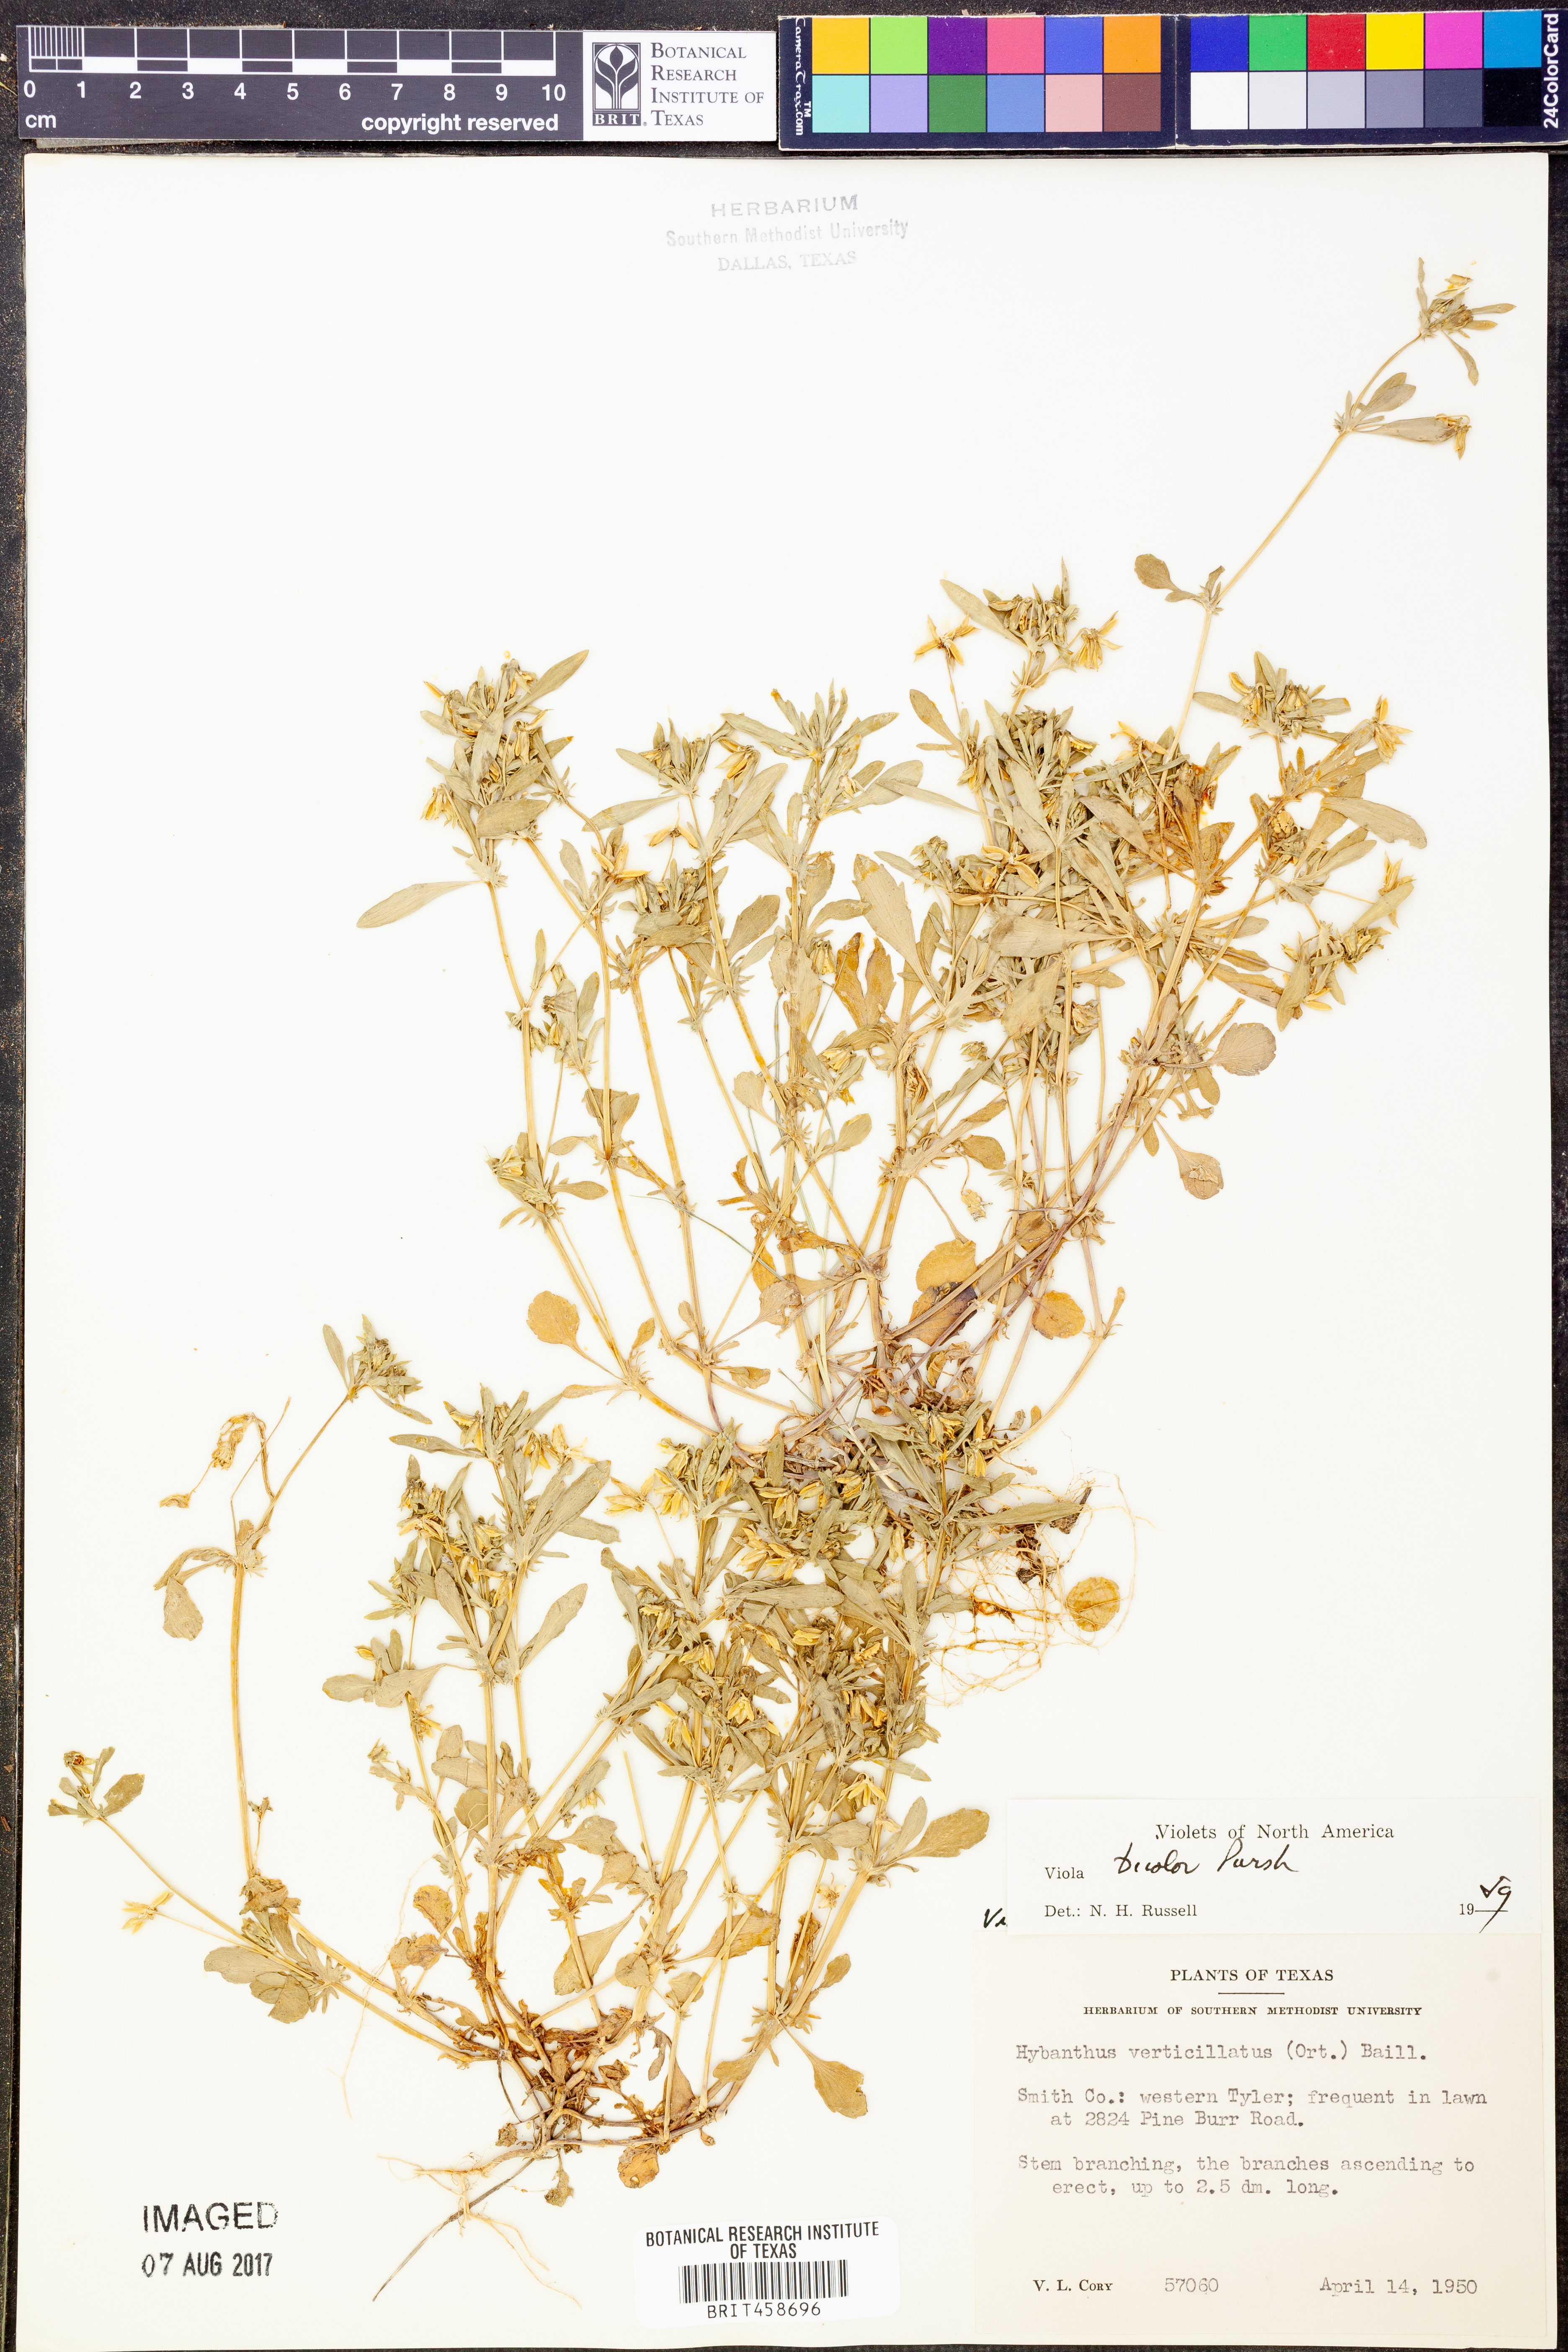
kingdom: Plantae
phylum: Tracheophyta
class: Magnoliopsida
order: Malpighiales
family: Violaceae
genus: Viola
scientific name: Viola rafinesquei
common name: American field pansy
